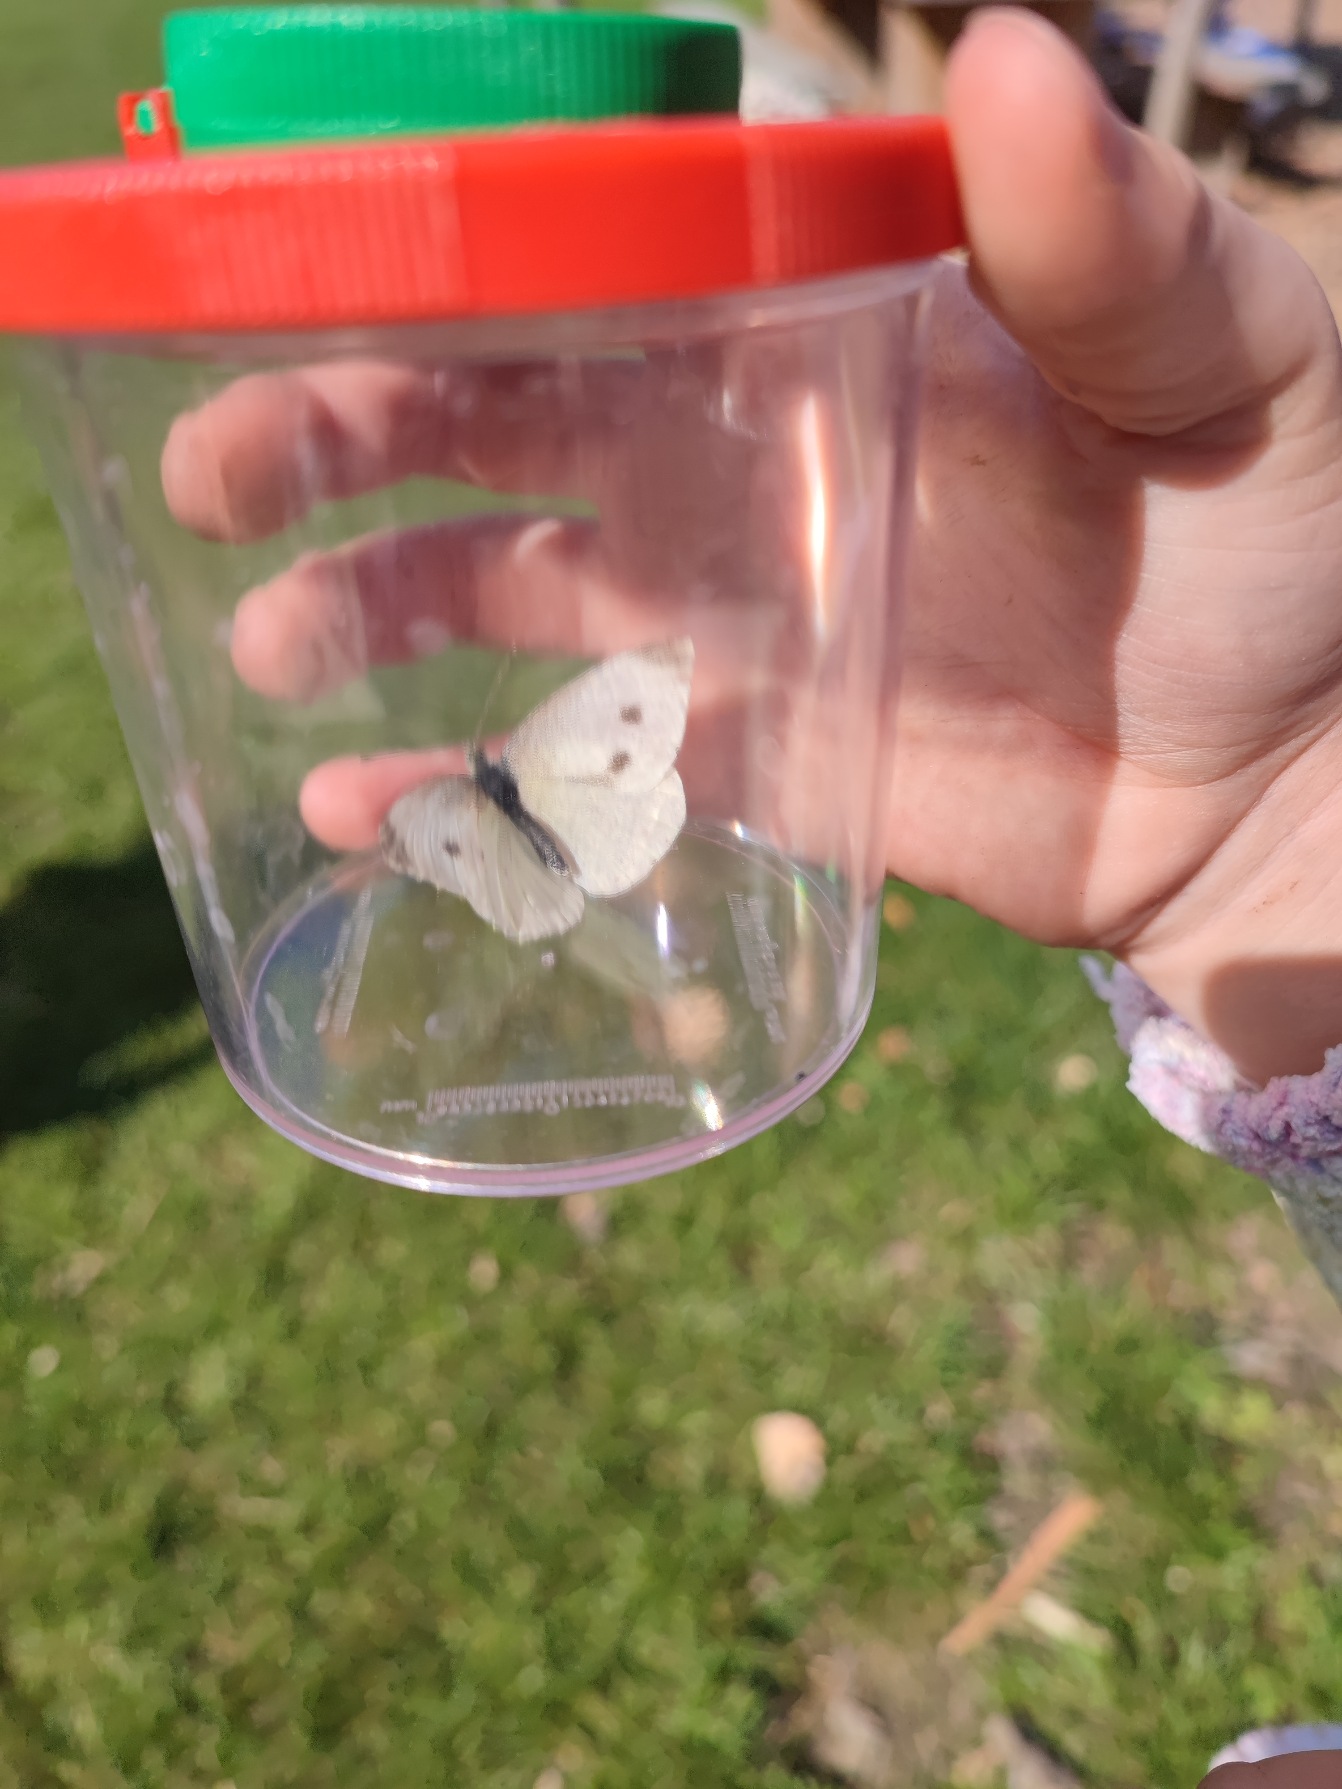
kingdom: Animalia
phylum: Arthropoda
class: Insecta
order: Lepidoptera
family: Pieridae
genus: Pieris
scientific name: Pieris rapae
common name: Lille kålsommerfugl
